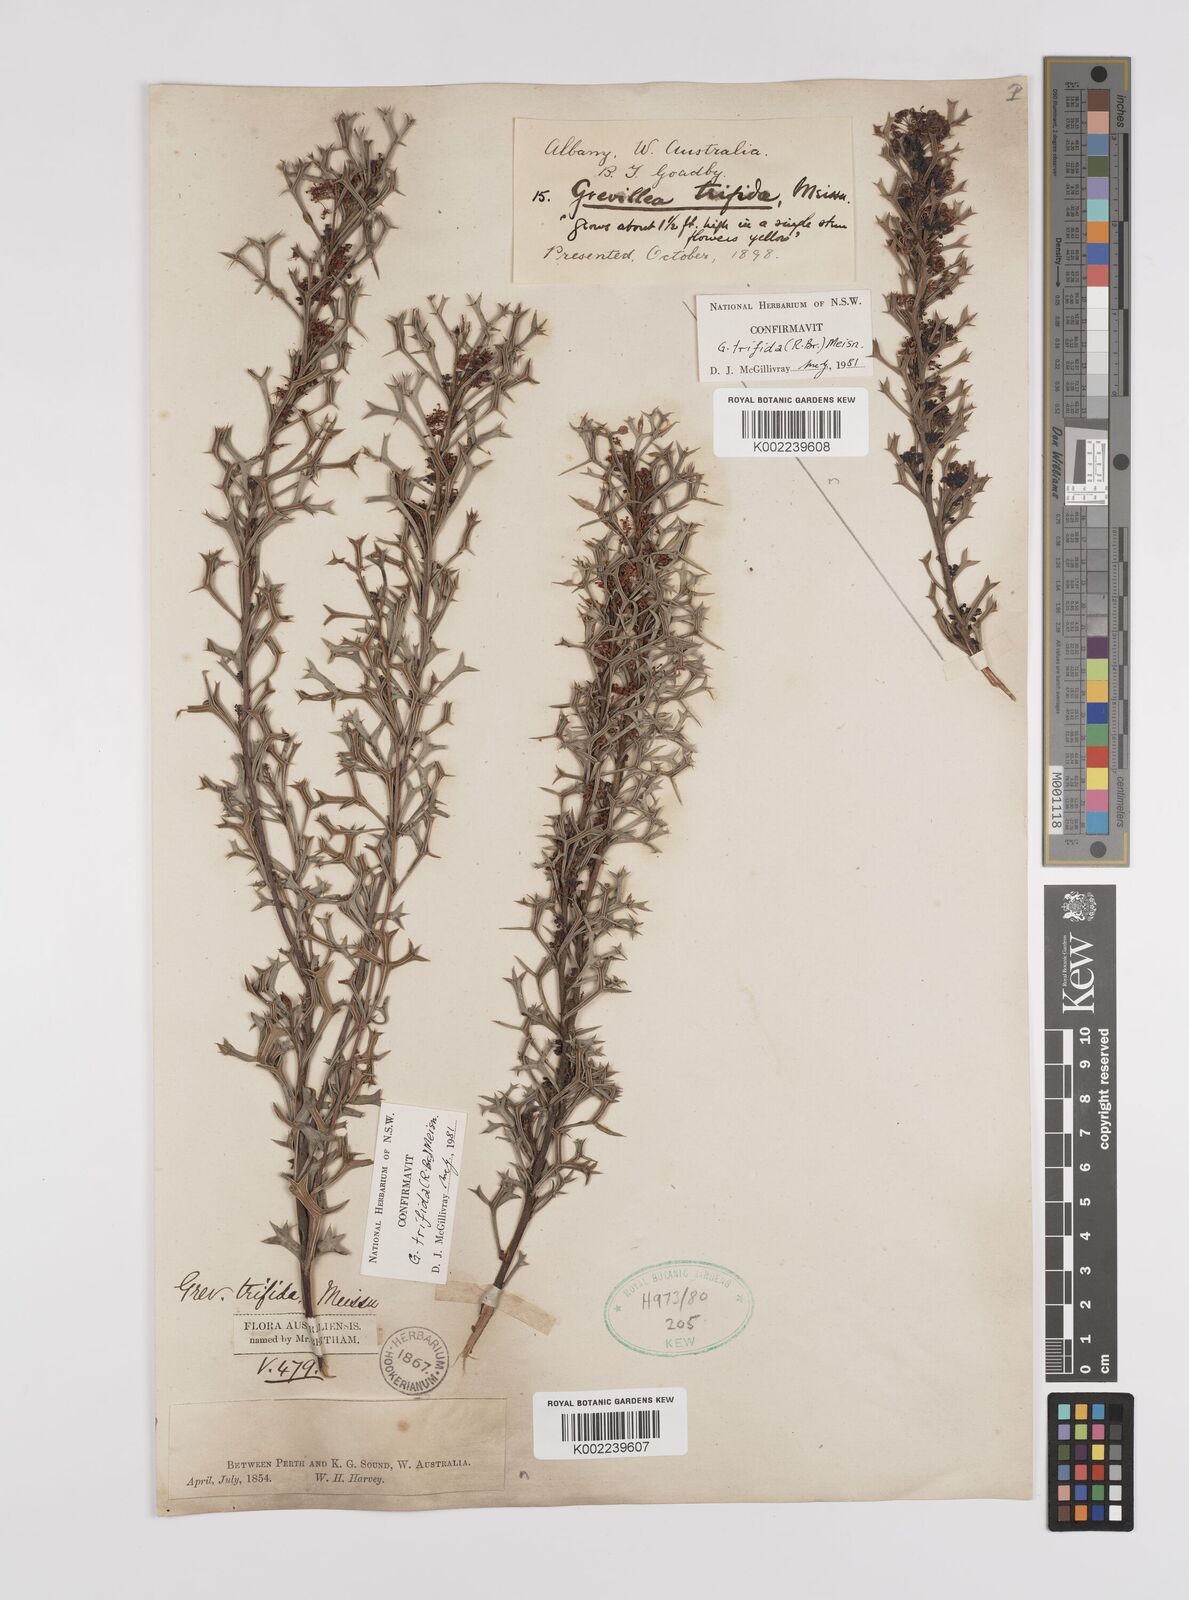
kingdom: Plantae
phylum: Tracheophyta
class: Magnoliopsida
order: Proteales
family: Proteaceae
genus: Grevillea
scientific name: Grevillea trifida
